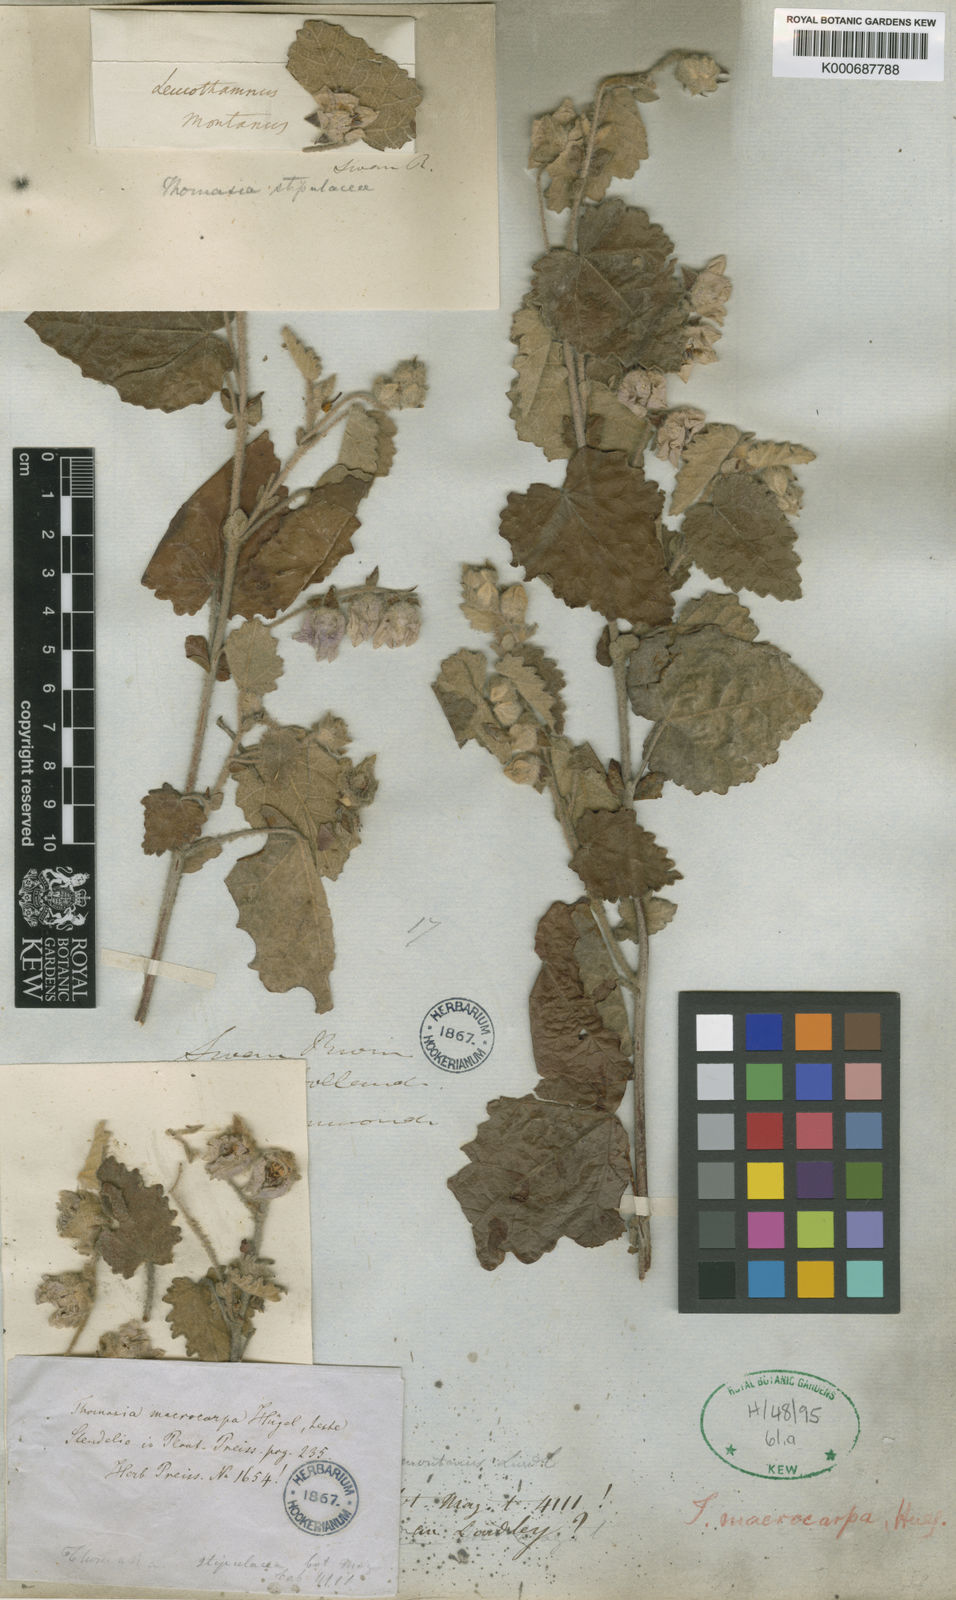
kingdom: Plantae
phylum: Tracheophyta
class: Magnoliopsida
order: Malvales
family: Malvaceae
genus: Thomasia
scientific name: Thomasia
